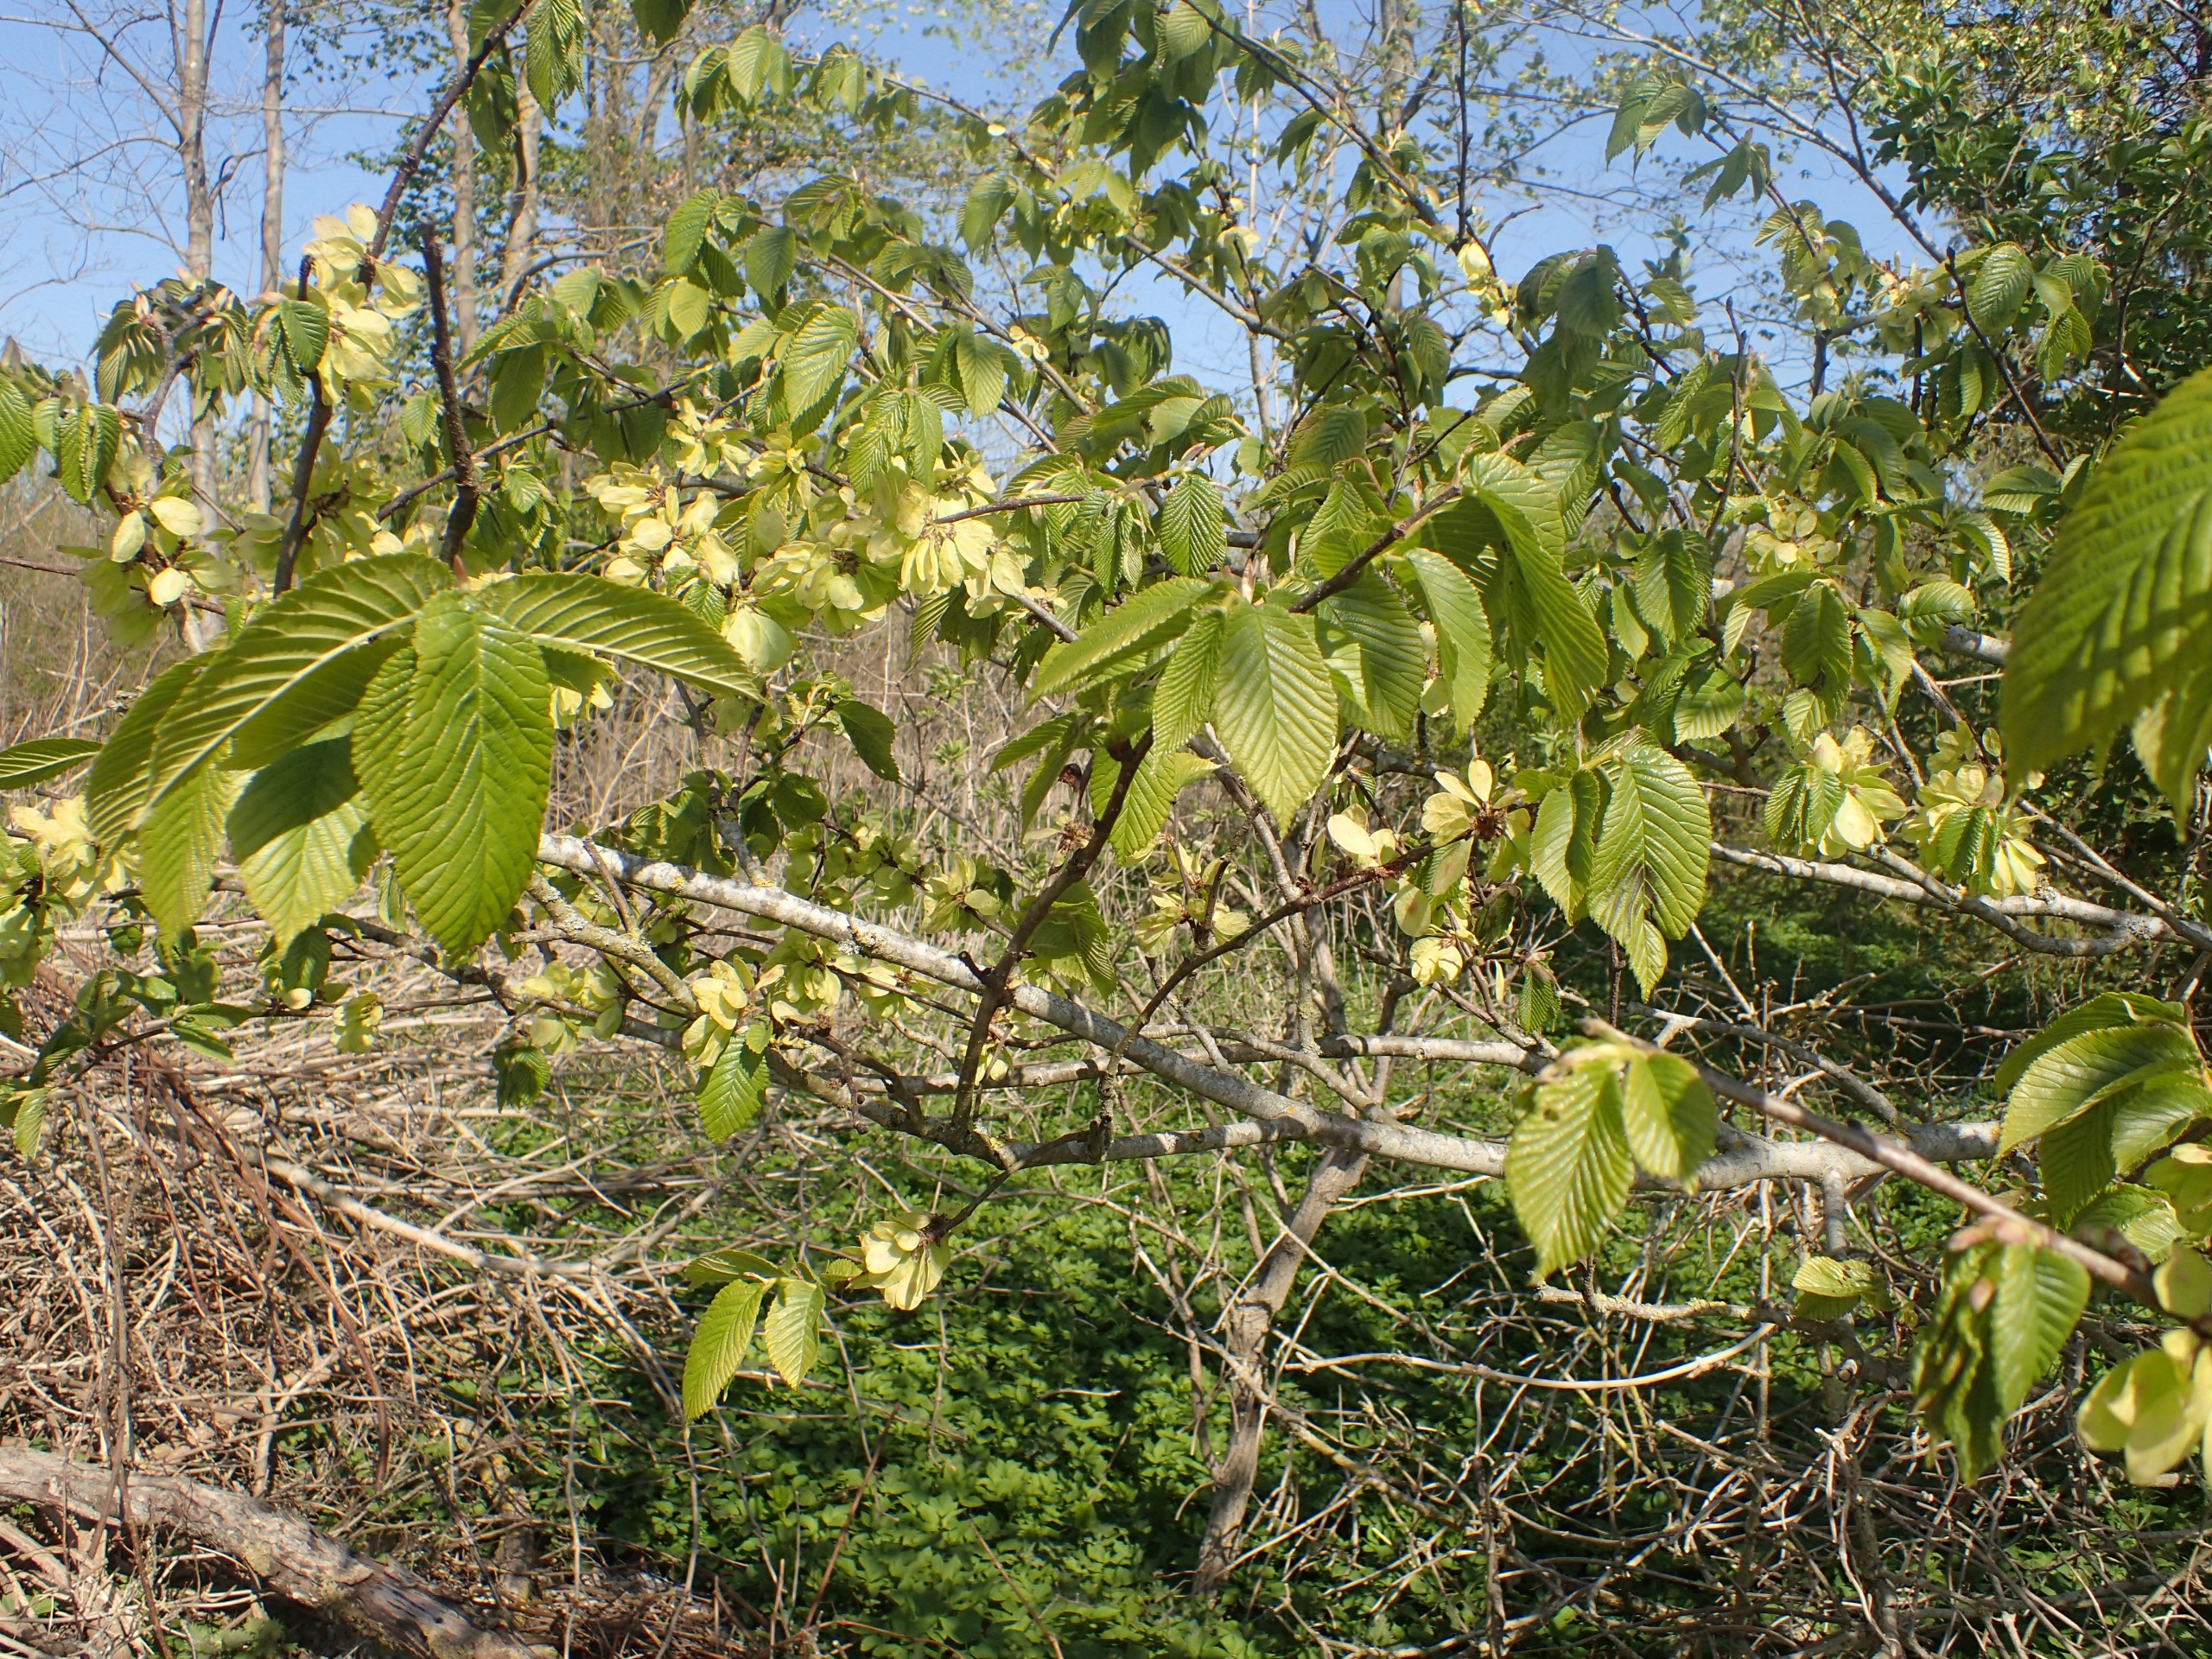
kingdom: Plantae
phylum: Tracheophyta
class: Magnoliopsida
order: Rosales
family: Ulmaceae
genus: Ulmus
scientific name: Ulmus hollandica
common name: Hollandsk elm
